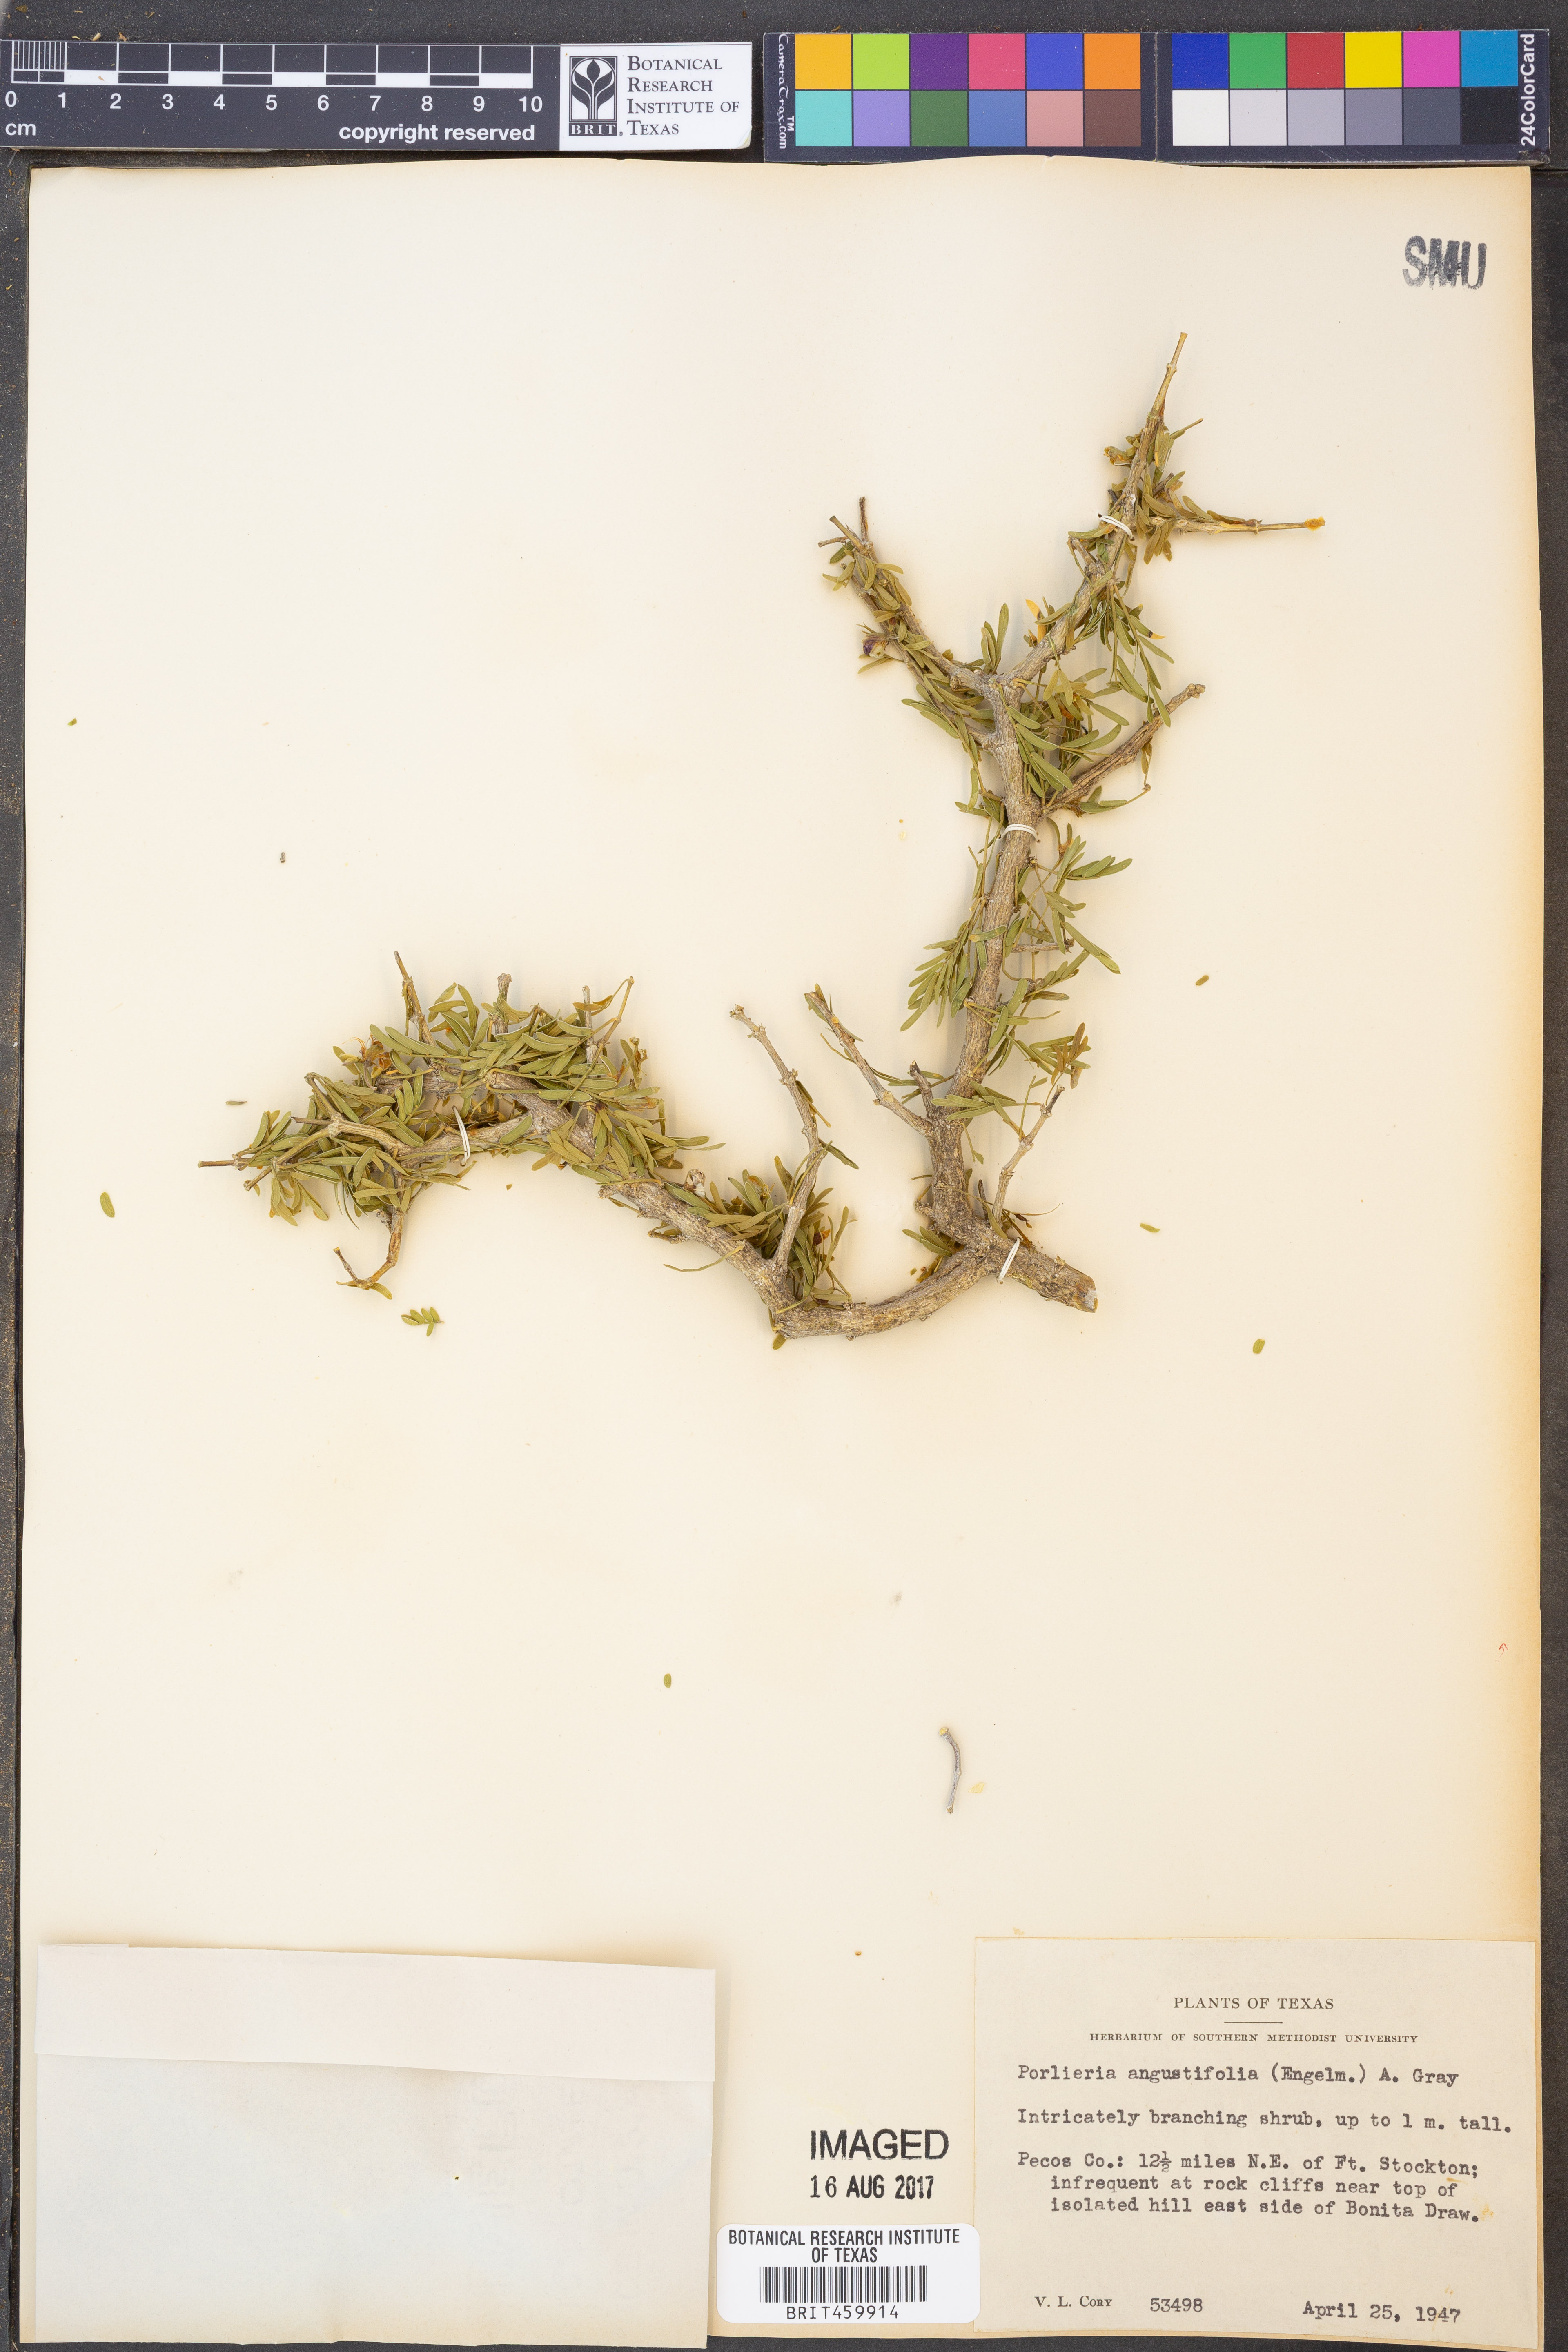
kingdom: Plantae
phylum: Tracheophyta
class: Magnoliopsida
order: Zygophyllales
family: Zygophyllaceae
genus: Porlieria
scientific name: Porlieria angustifolia
